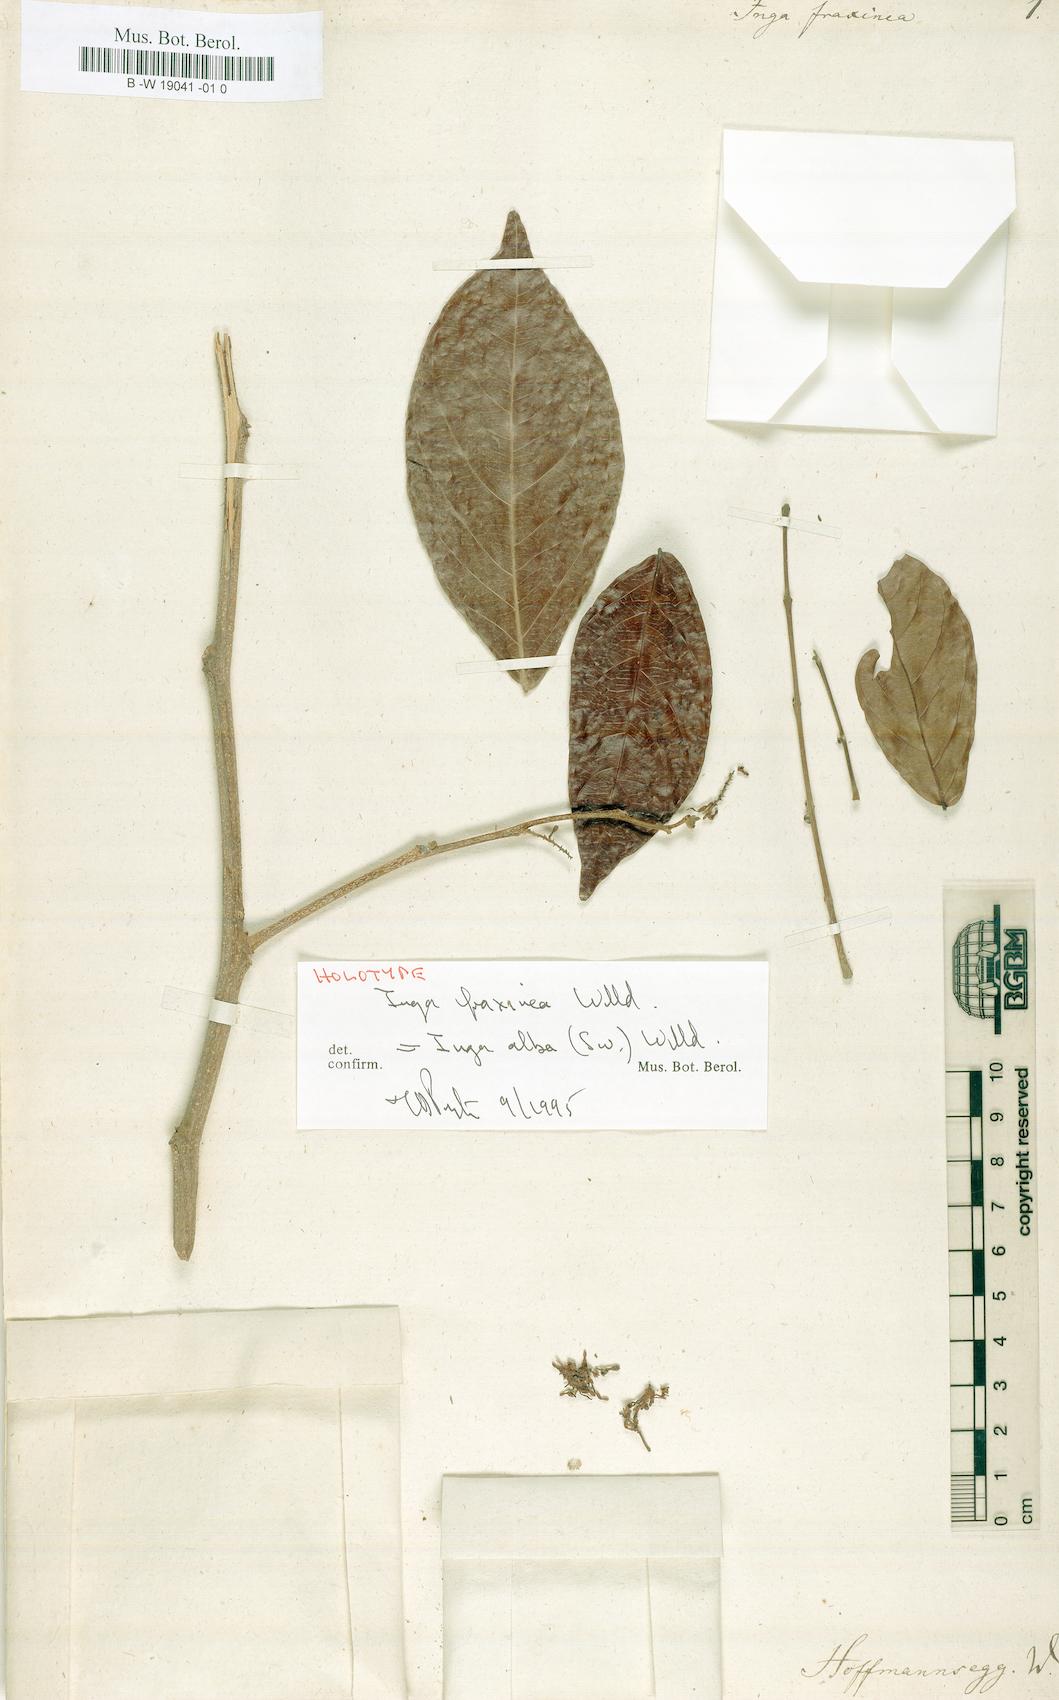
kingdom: Plantae
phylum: Tracheophyta
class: Magnoliopsida
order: Fabales
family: Fabaceae
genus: Inga
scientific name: Inga alba
